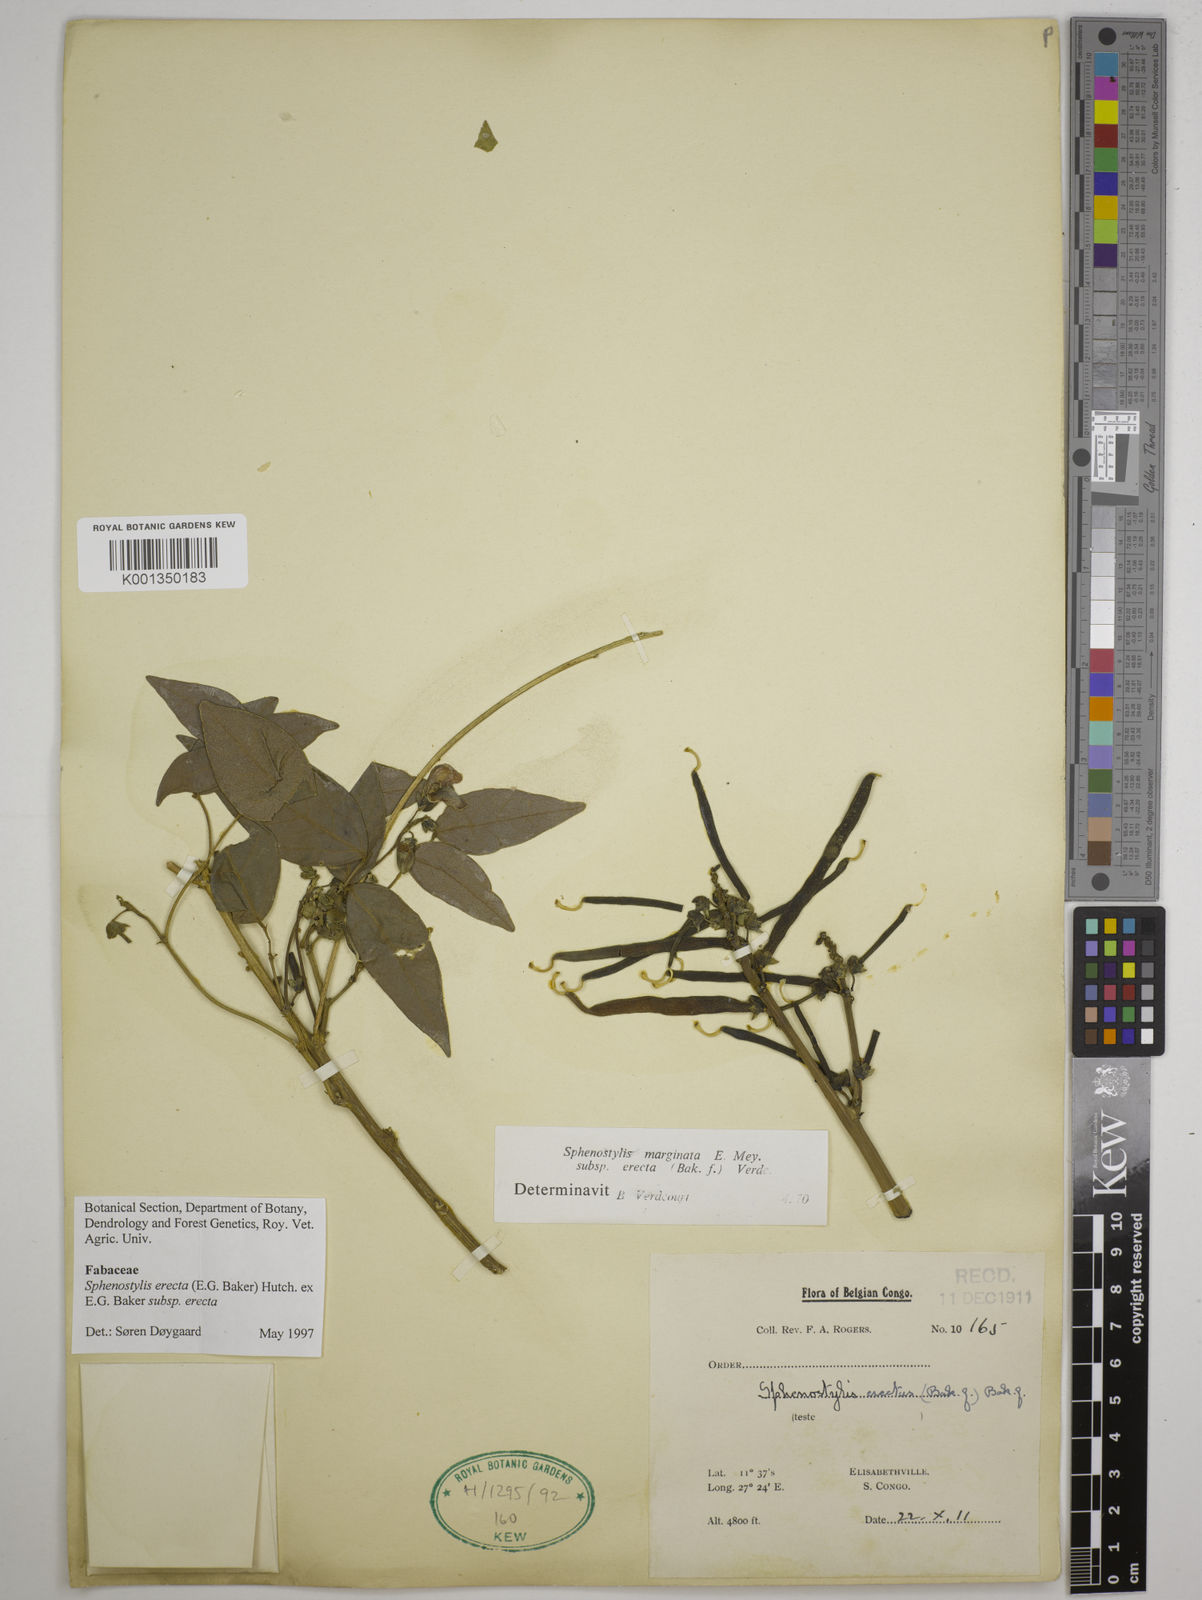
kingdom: Plantae
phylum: Tracheophyta
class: Magnoliopsida
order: Fabales
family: Fabaceae
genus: Sphenostylis
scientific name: Sphenostylis erecta
